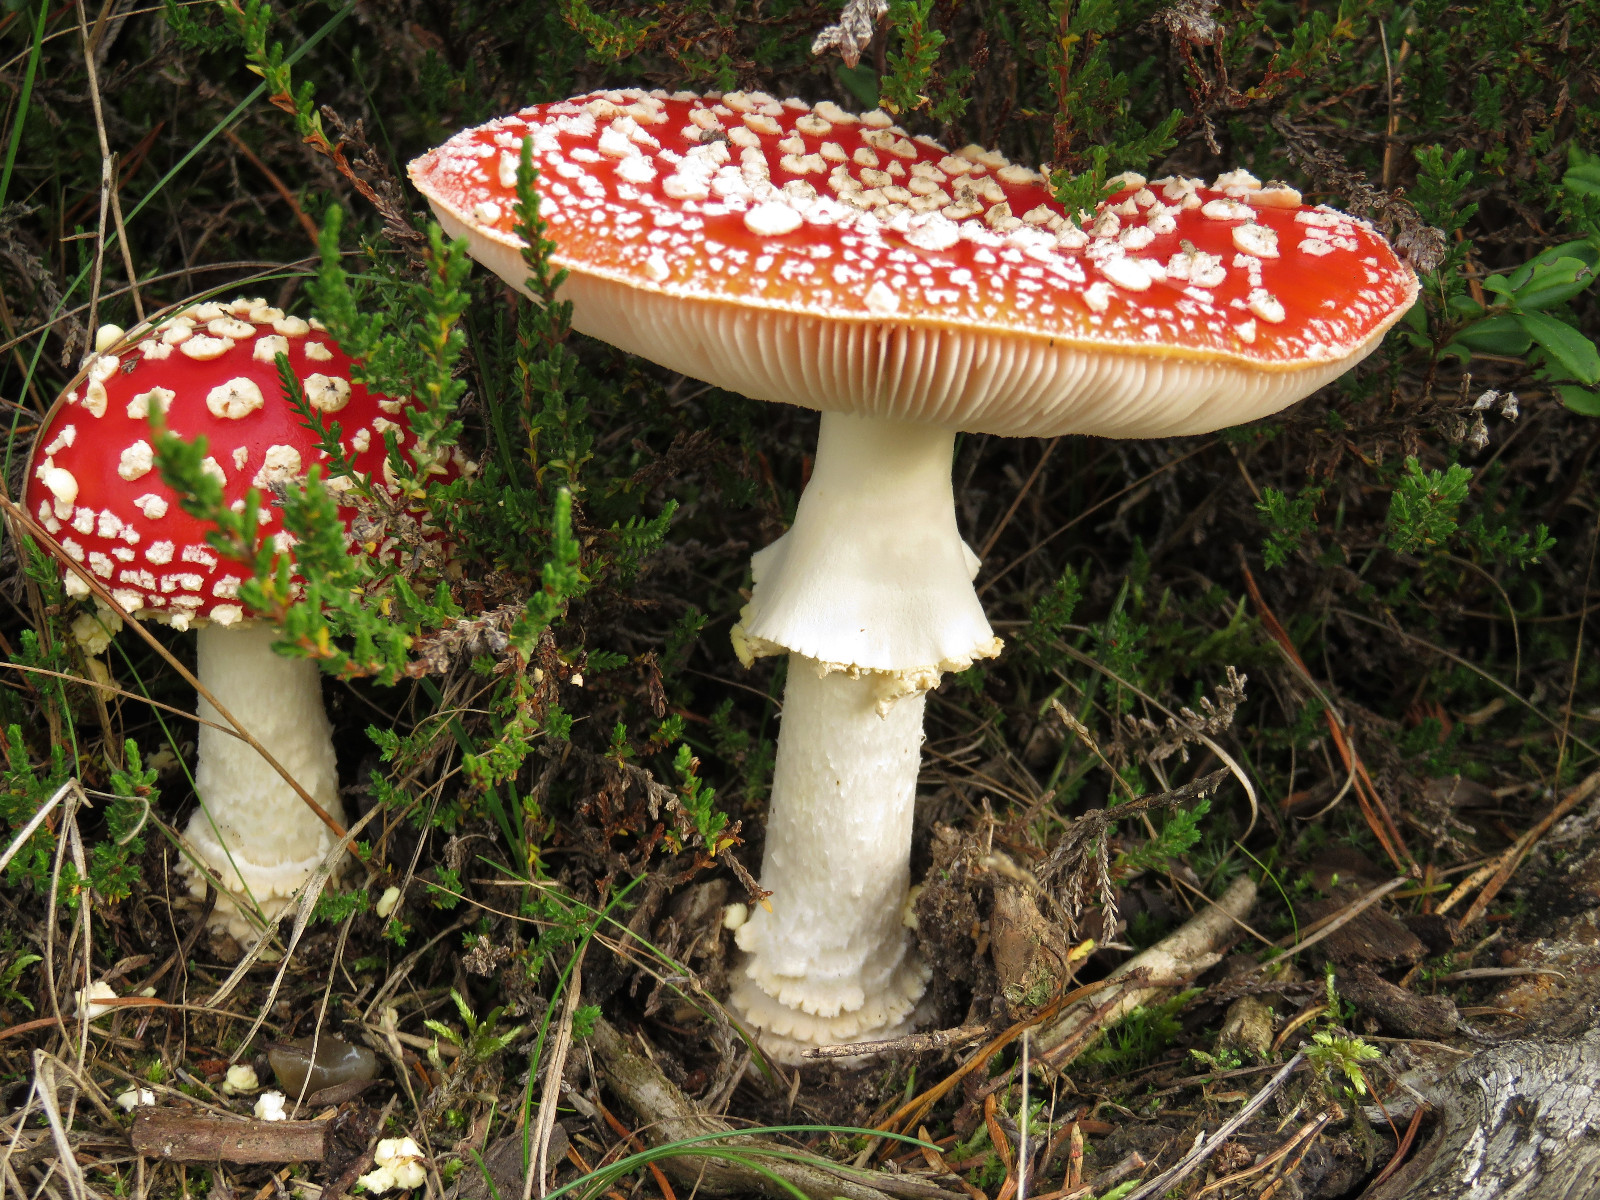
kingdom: Fungi
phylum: Basidiomycota
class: Agaricomycetes
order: Agaricales
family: Amanitaceae
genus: Amanita
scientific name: Amanita muscaria
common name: rød fluesvamp
